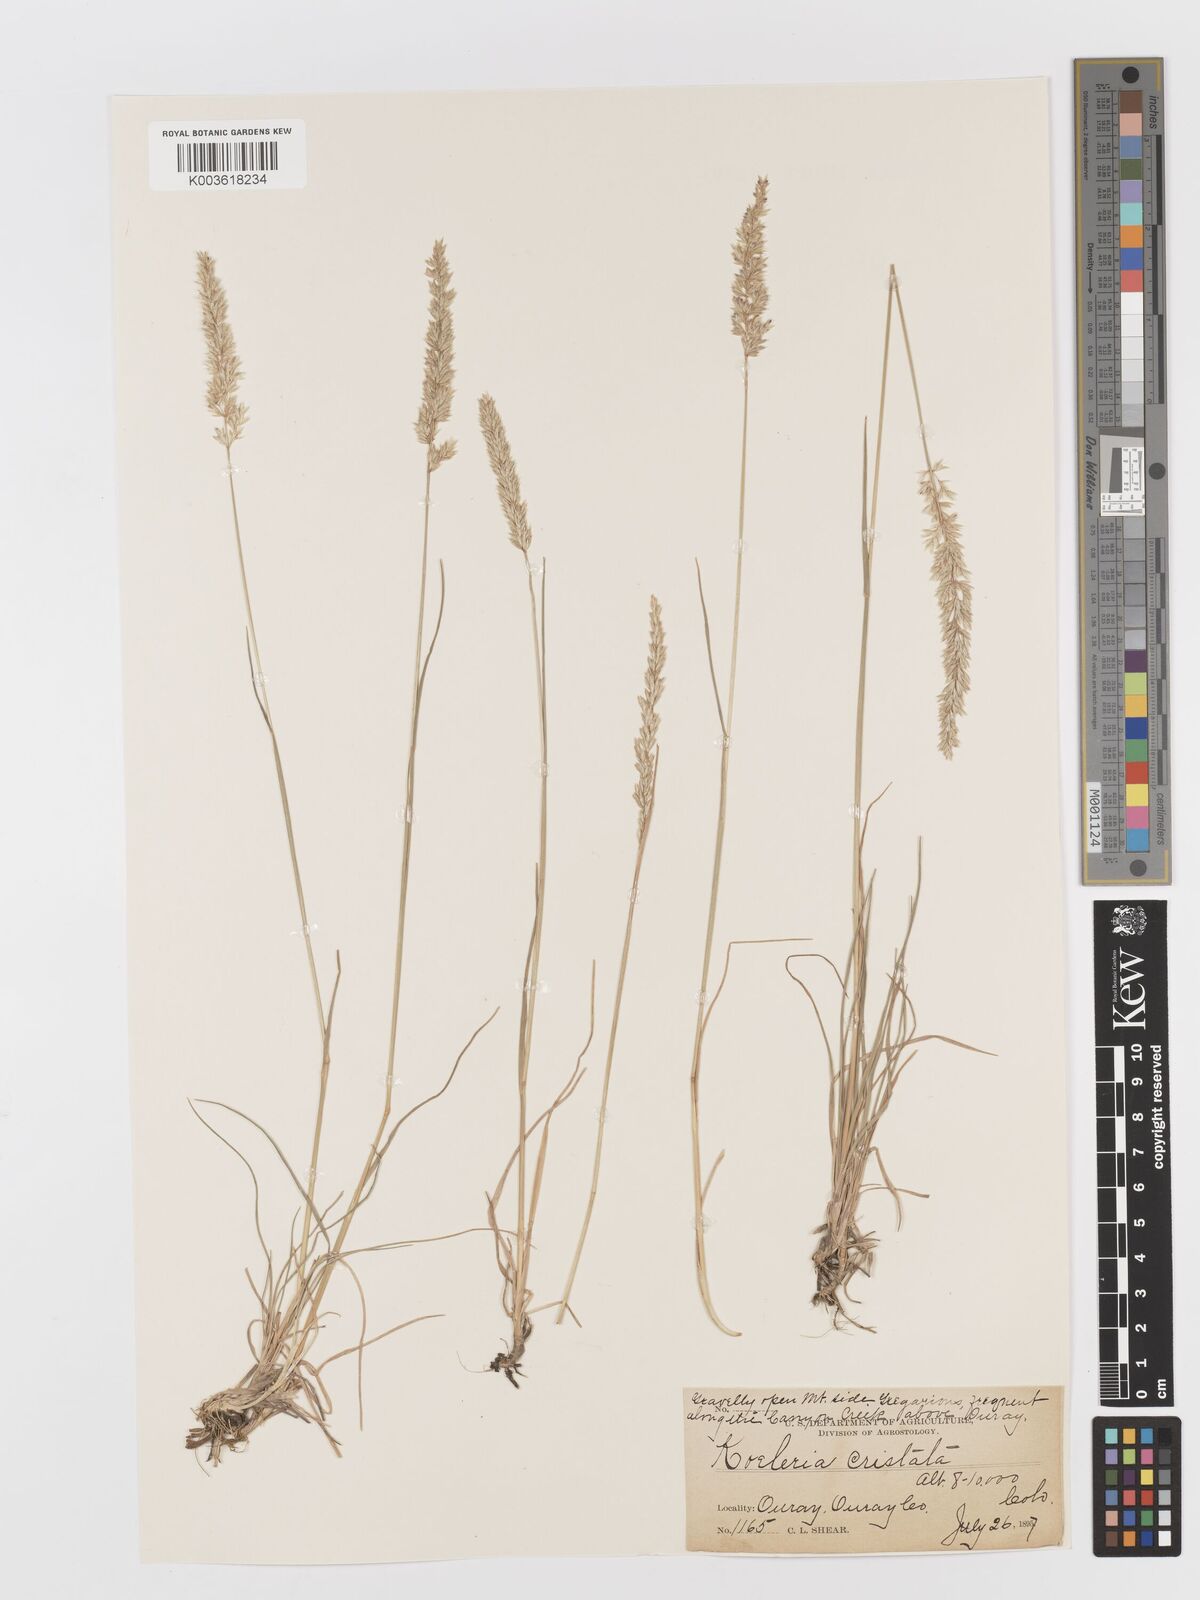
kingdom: Plantae
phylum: Tracheophyta
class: Liliopsida
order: Poales
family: Poaceae
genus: Koeleria
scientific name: Koeleria macrantha
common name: Crested hair-grass
